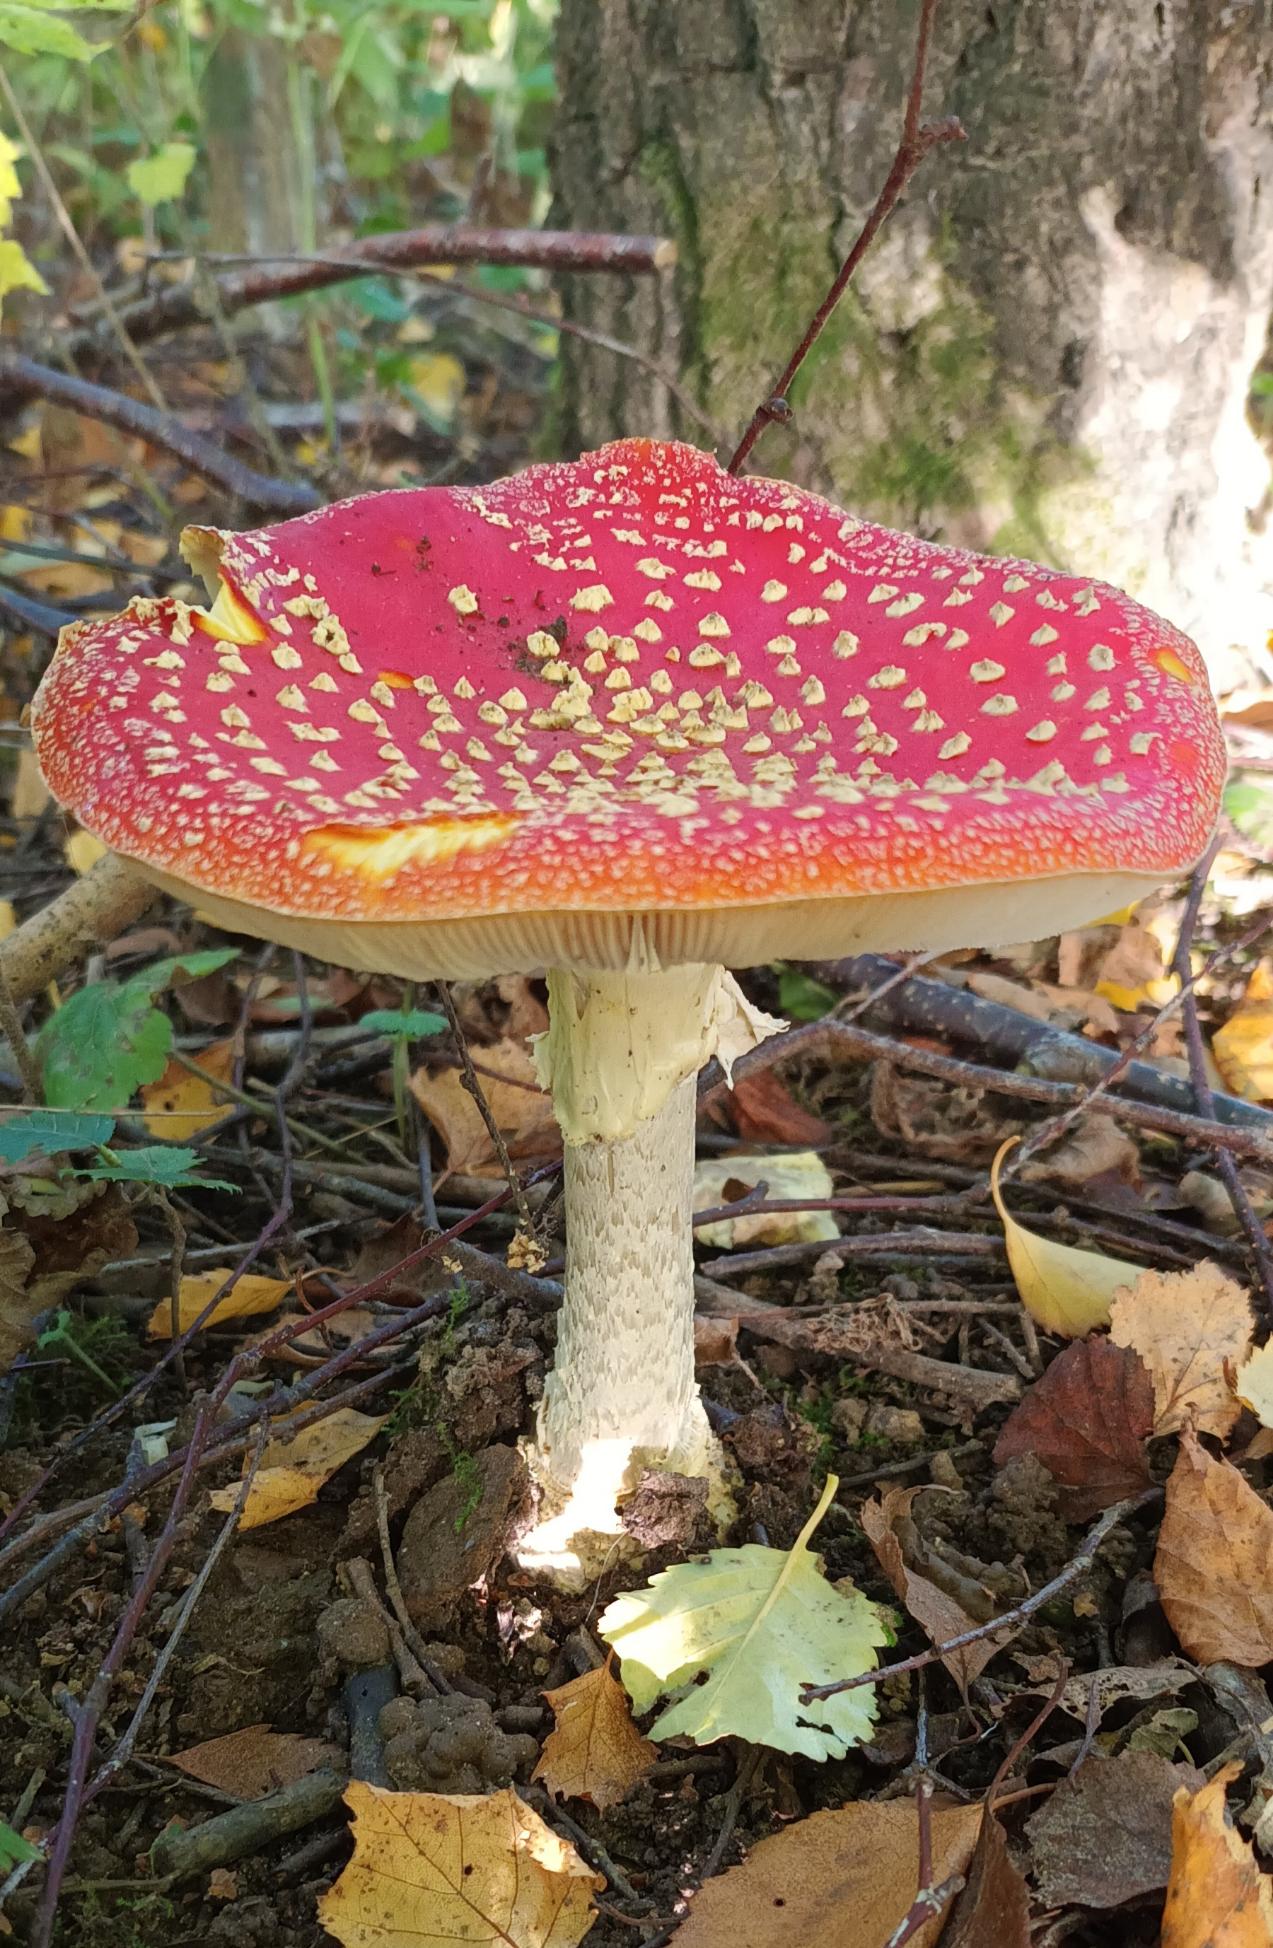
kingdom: Fungi
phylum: Basidiomycota
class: Agaricomycetes
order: Agaricales
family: Amanitaceae
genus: Amanita
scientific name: Amanita muscaria
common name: Rød fluesvamp
